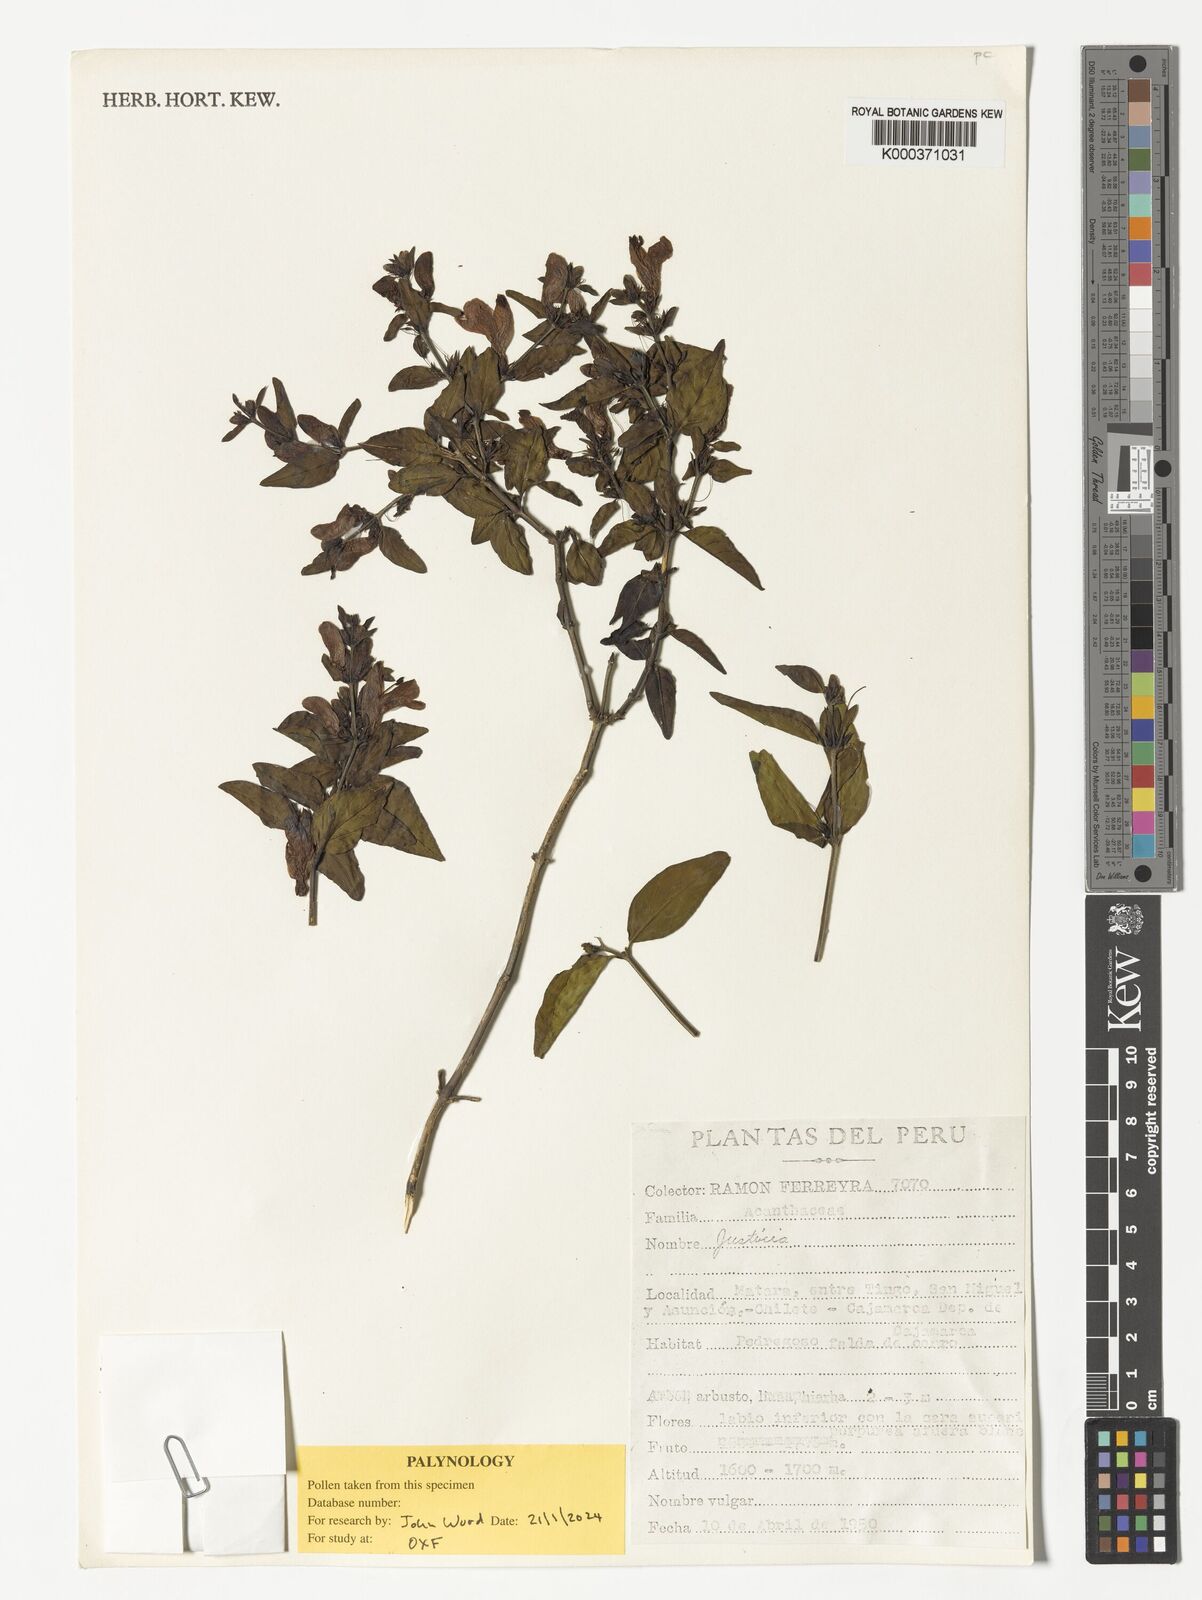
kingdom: Plantae
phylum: Tracheophyta
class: Magnoliopsida
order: Lamiales
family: Acanthaceae
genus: Justicia
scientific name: Justicia
